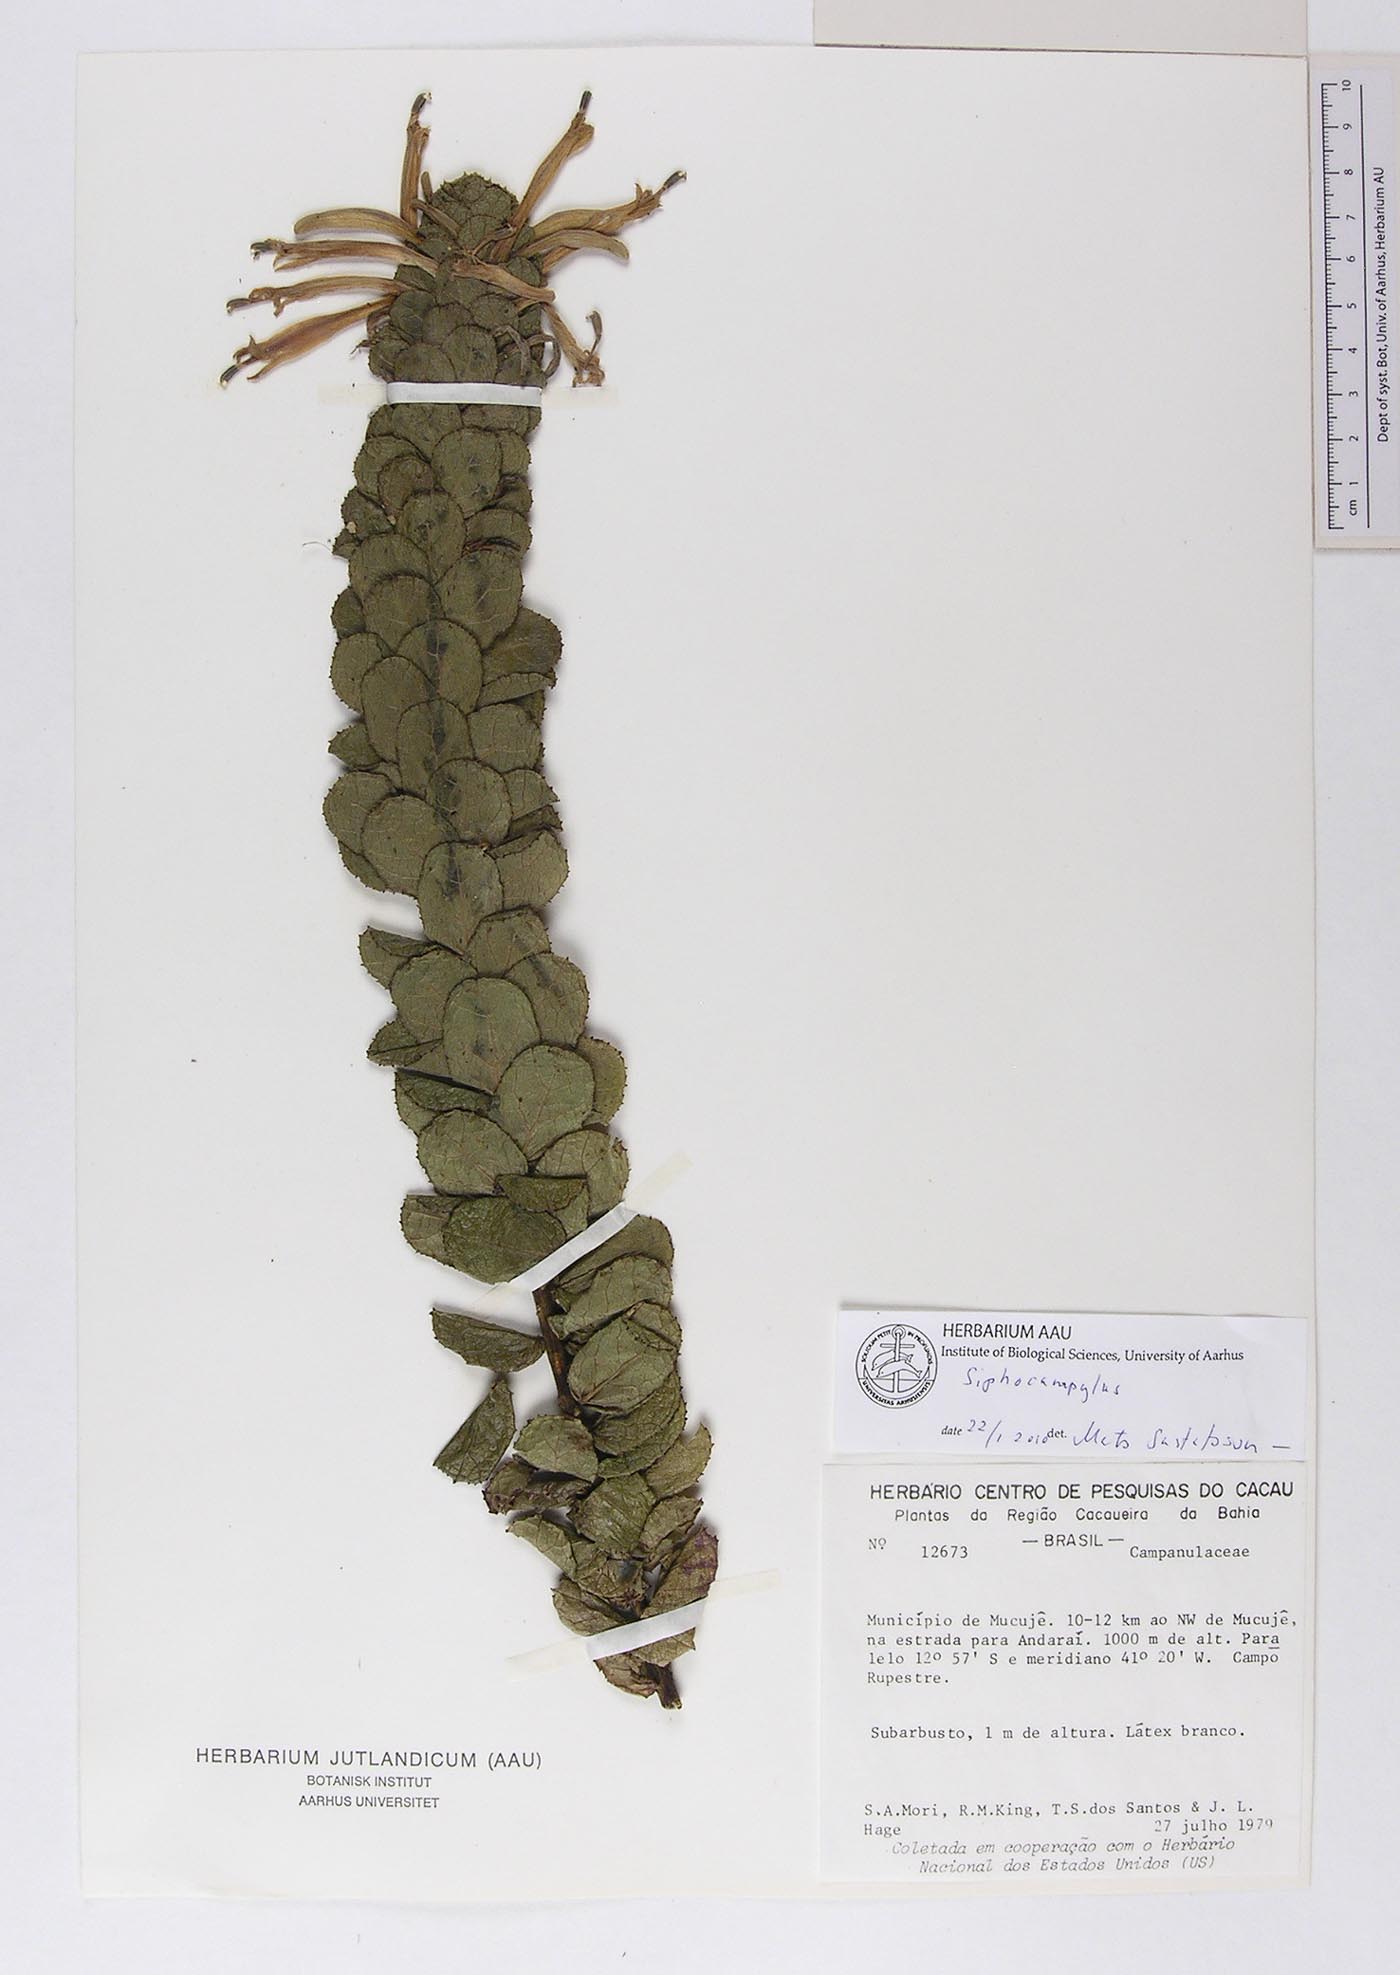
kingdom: Plantae
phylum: Tracheophyta
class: Magnoliopsida
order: Asterales
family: Campanulaceae
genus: Siphocampylus
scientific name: Siphocampylus
